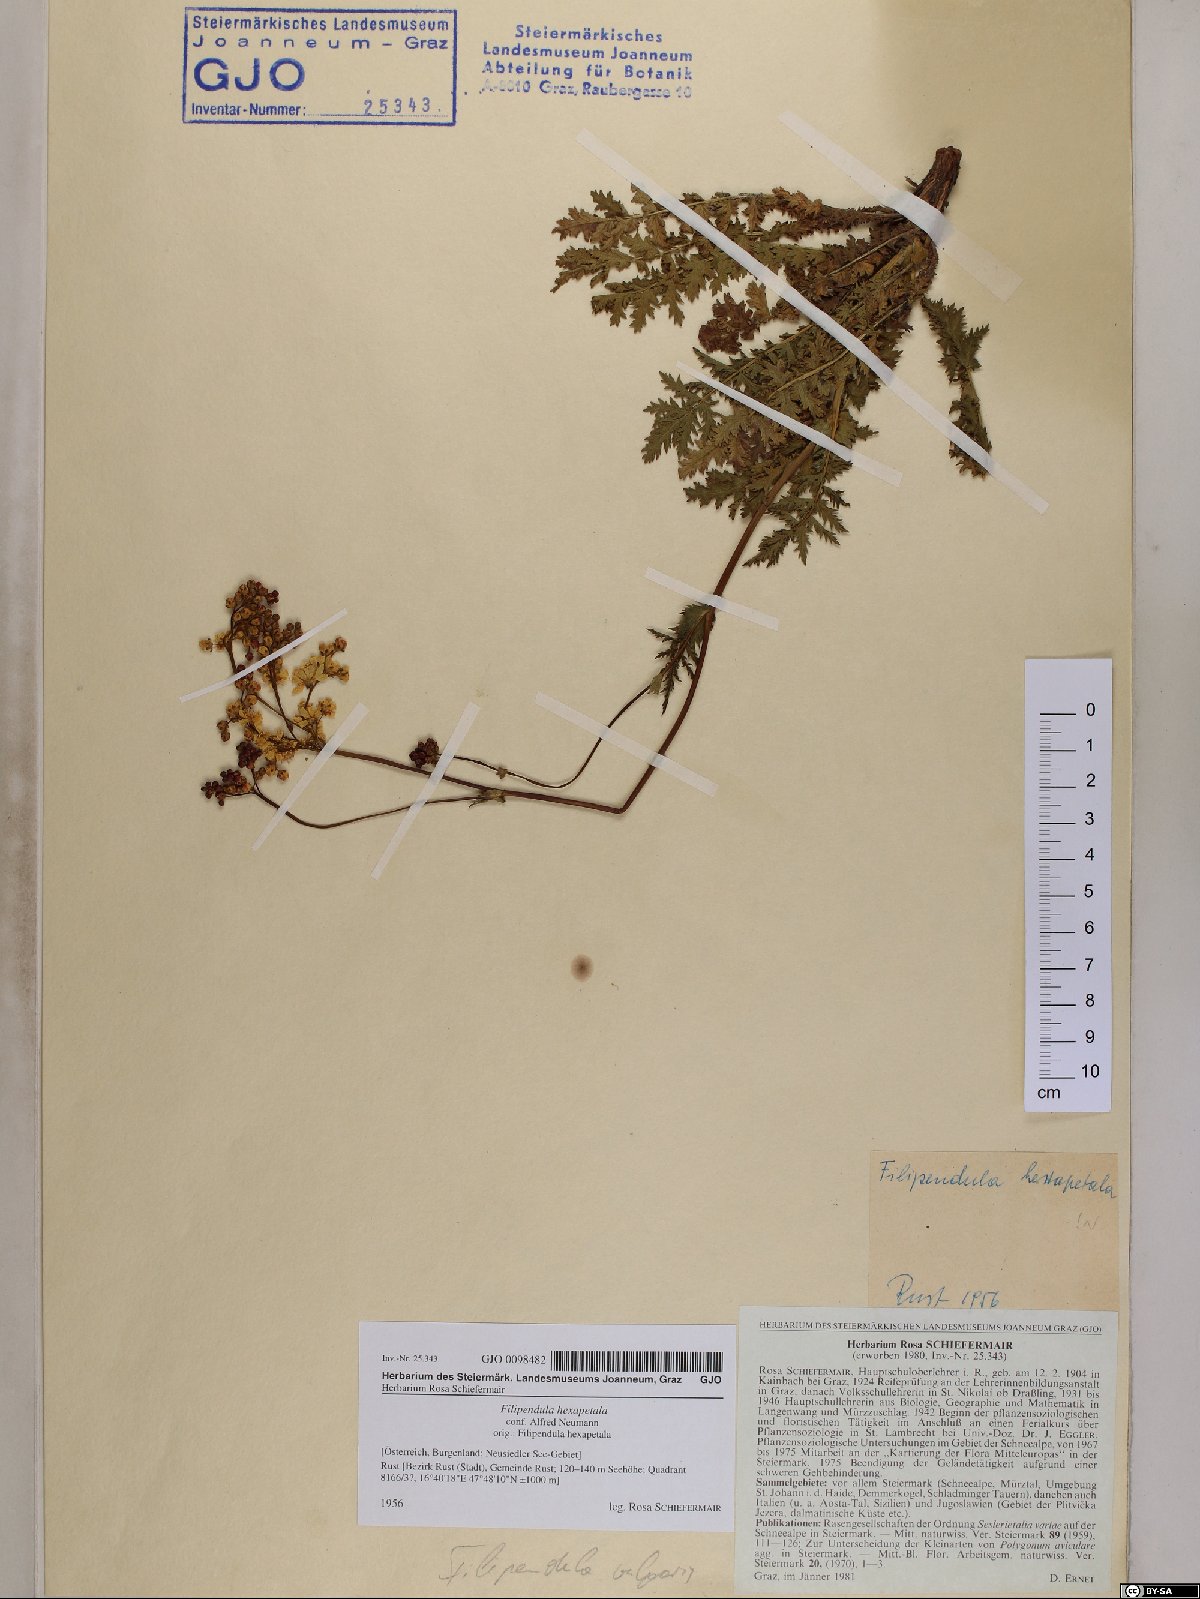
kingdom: Plantae
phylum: Tracheophyta
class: Magnoliopsida
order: Rosales
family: Rosaceae
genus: Filipendula
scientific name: Filipendula vulgaris
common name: Dropwort
